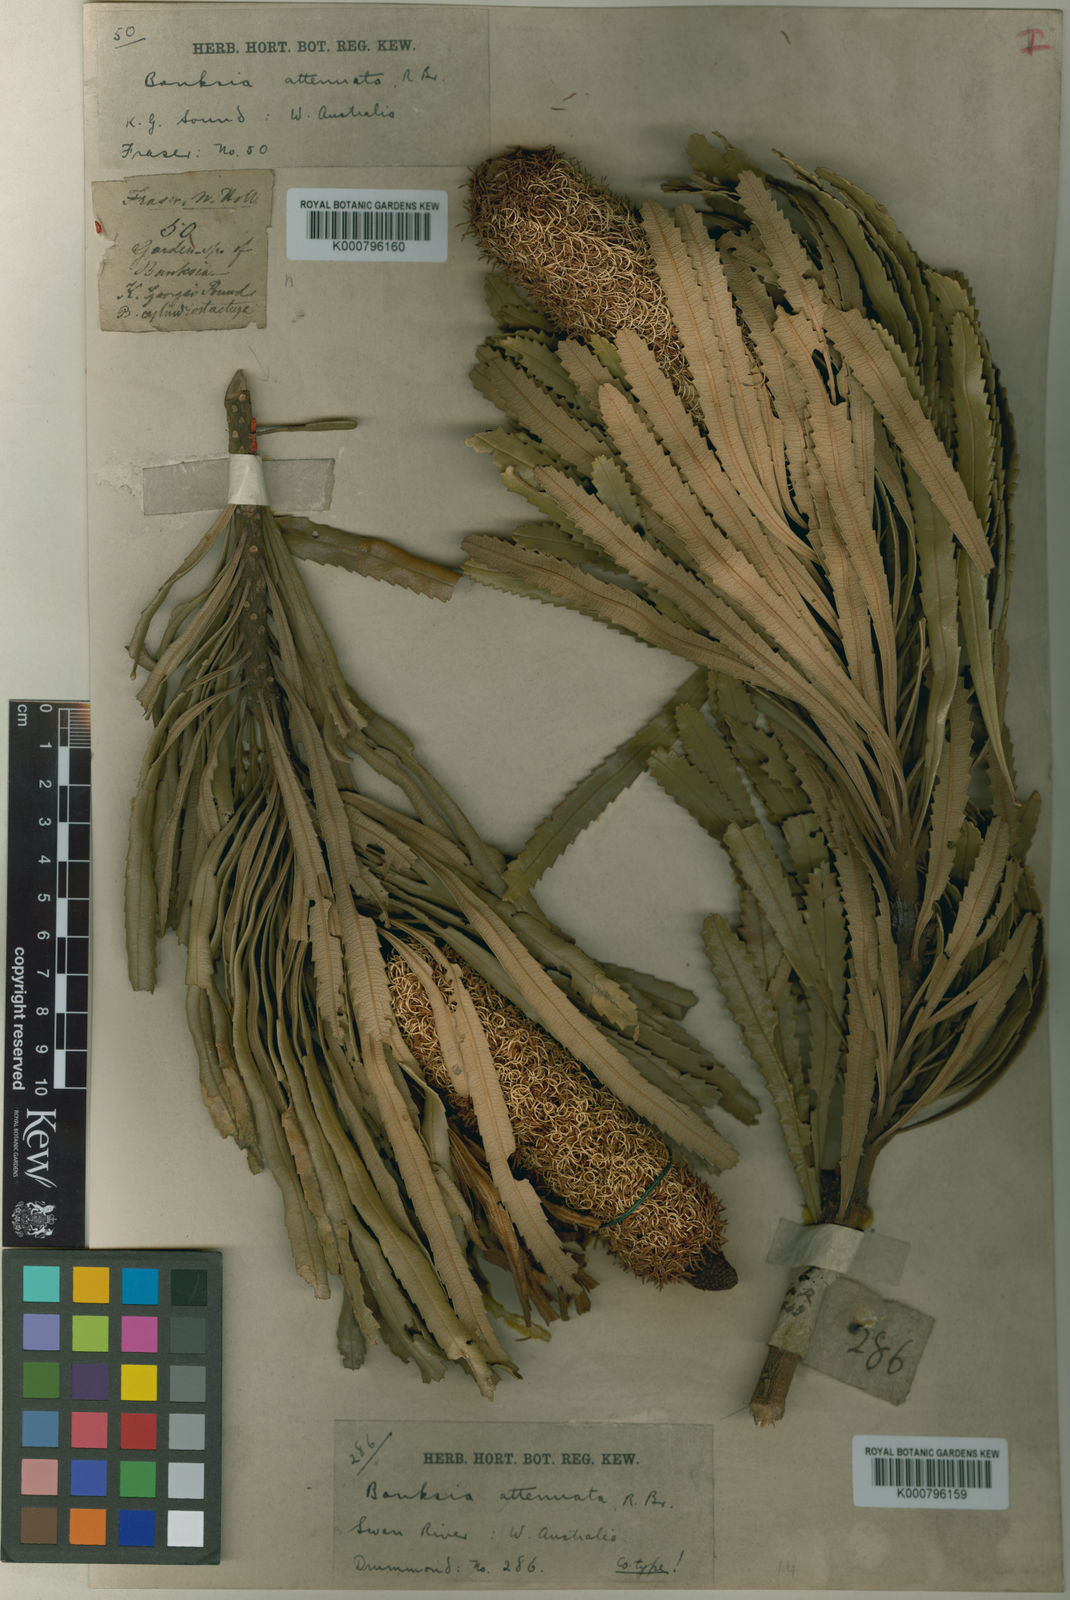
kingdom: Plantae
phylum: Tracheophyta
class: Magnoliopsida
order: Proteales
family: Proteaceae
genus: Banksia
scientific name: Banksia attenuata
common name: Coast banksia
